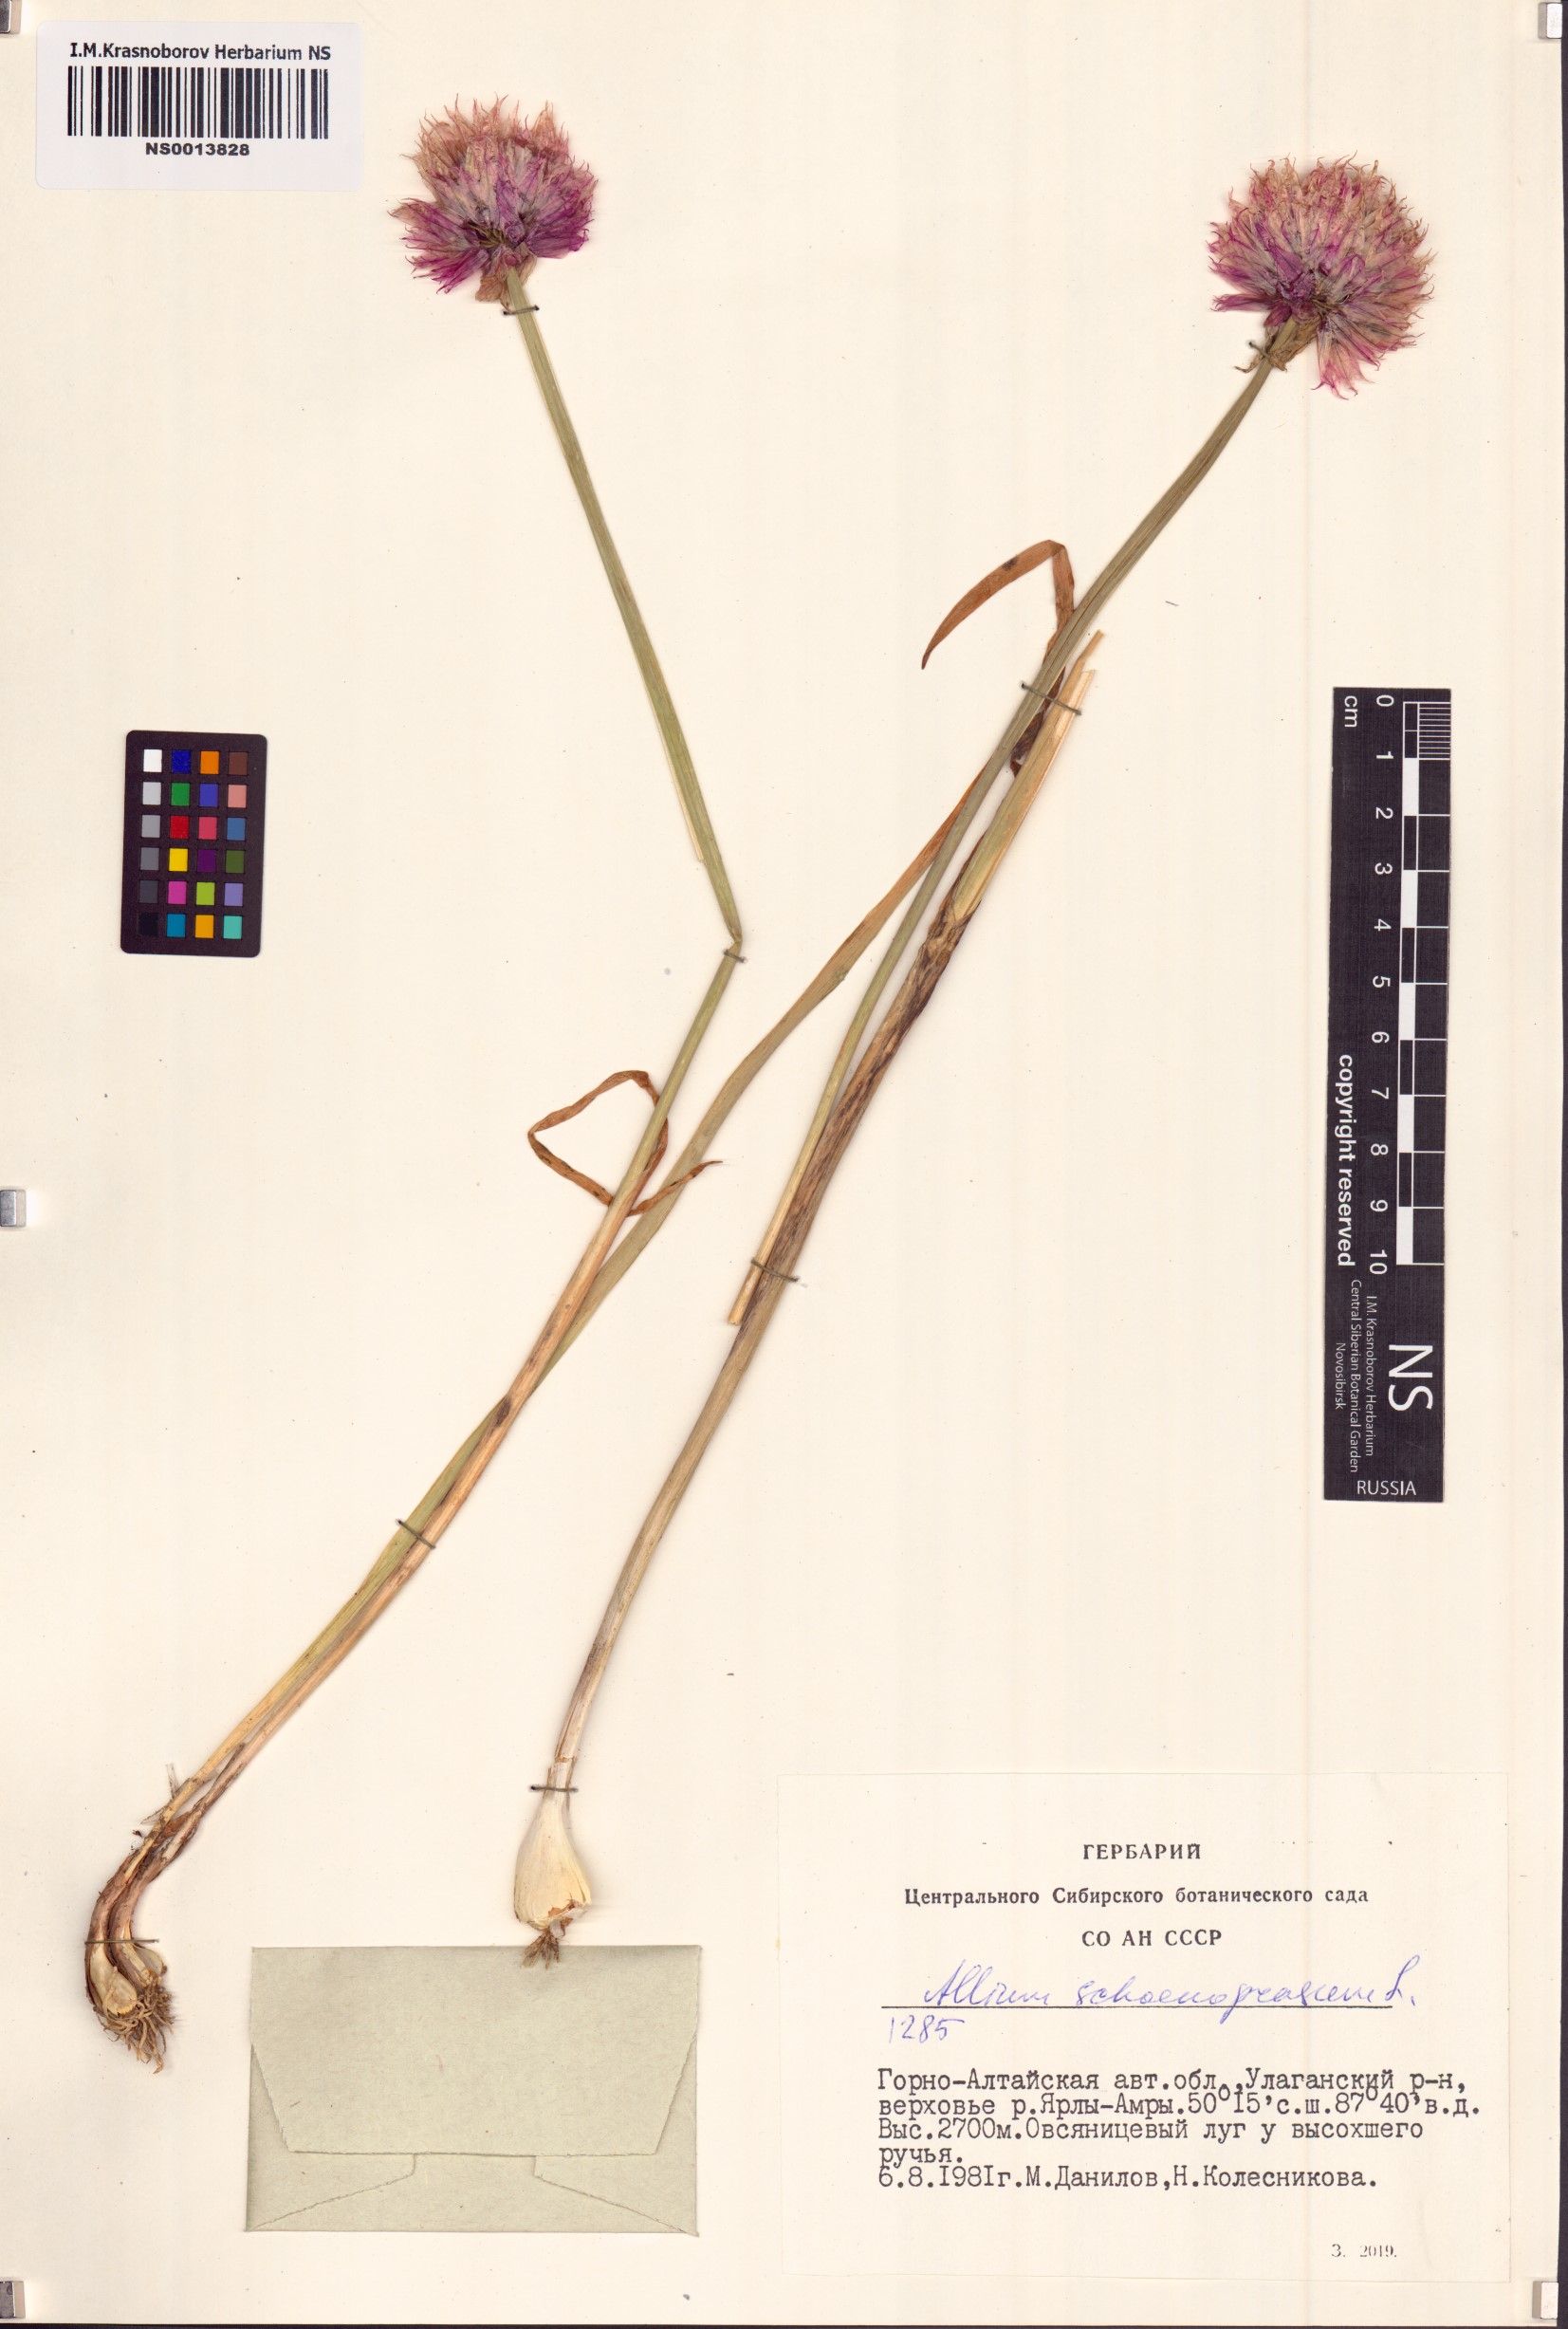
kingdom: Plantae
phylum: Tracheophyta
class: Liliopsida
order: Asparagales
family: Amaryllidaceae
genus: Allium
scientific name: Allium schoenoprasum
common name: Chives
